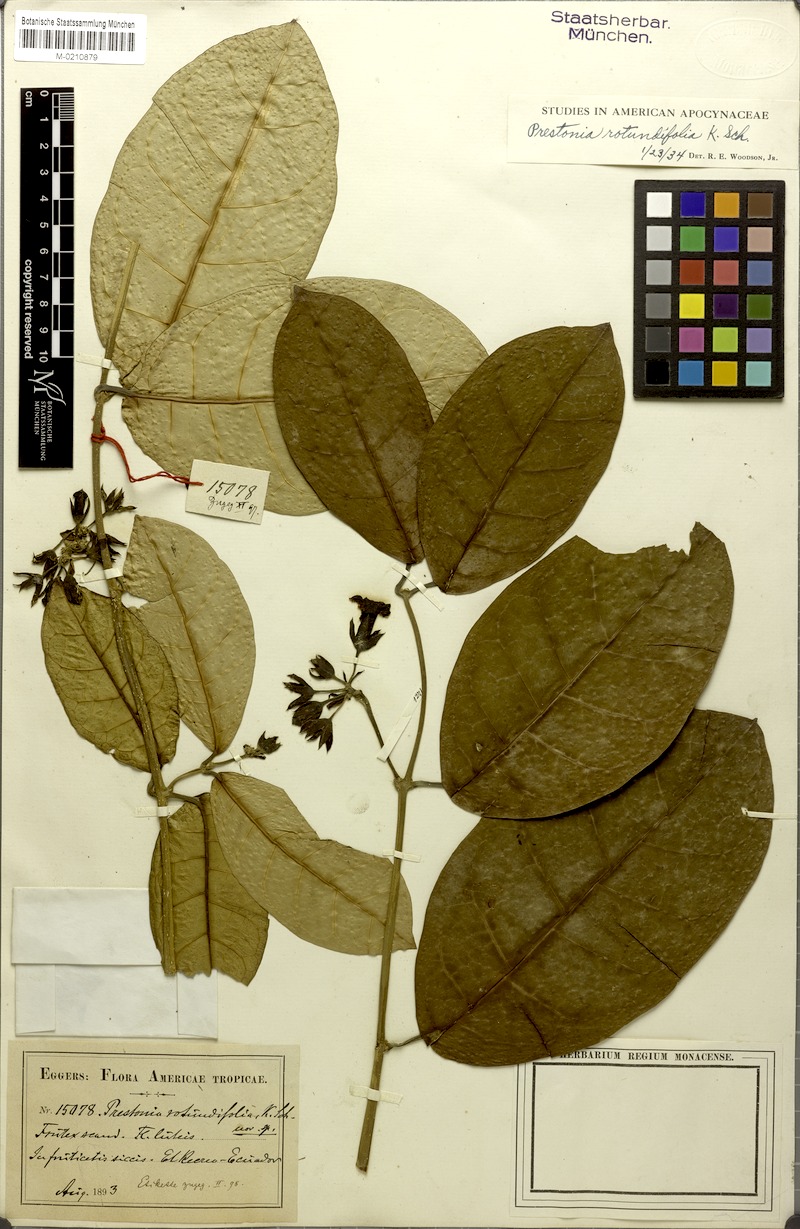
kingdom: Plantae
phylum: Tracheophyta
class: Magnoliopsida
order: Gentianales
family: Apocynaceae
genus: Prestonia
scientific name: Prestonia rotundifolia
